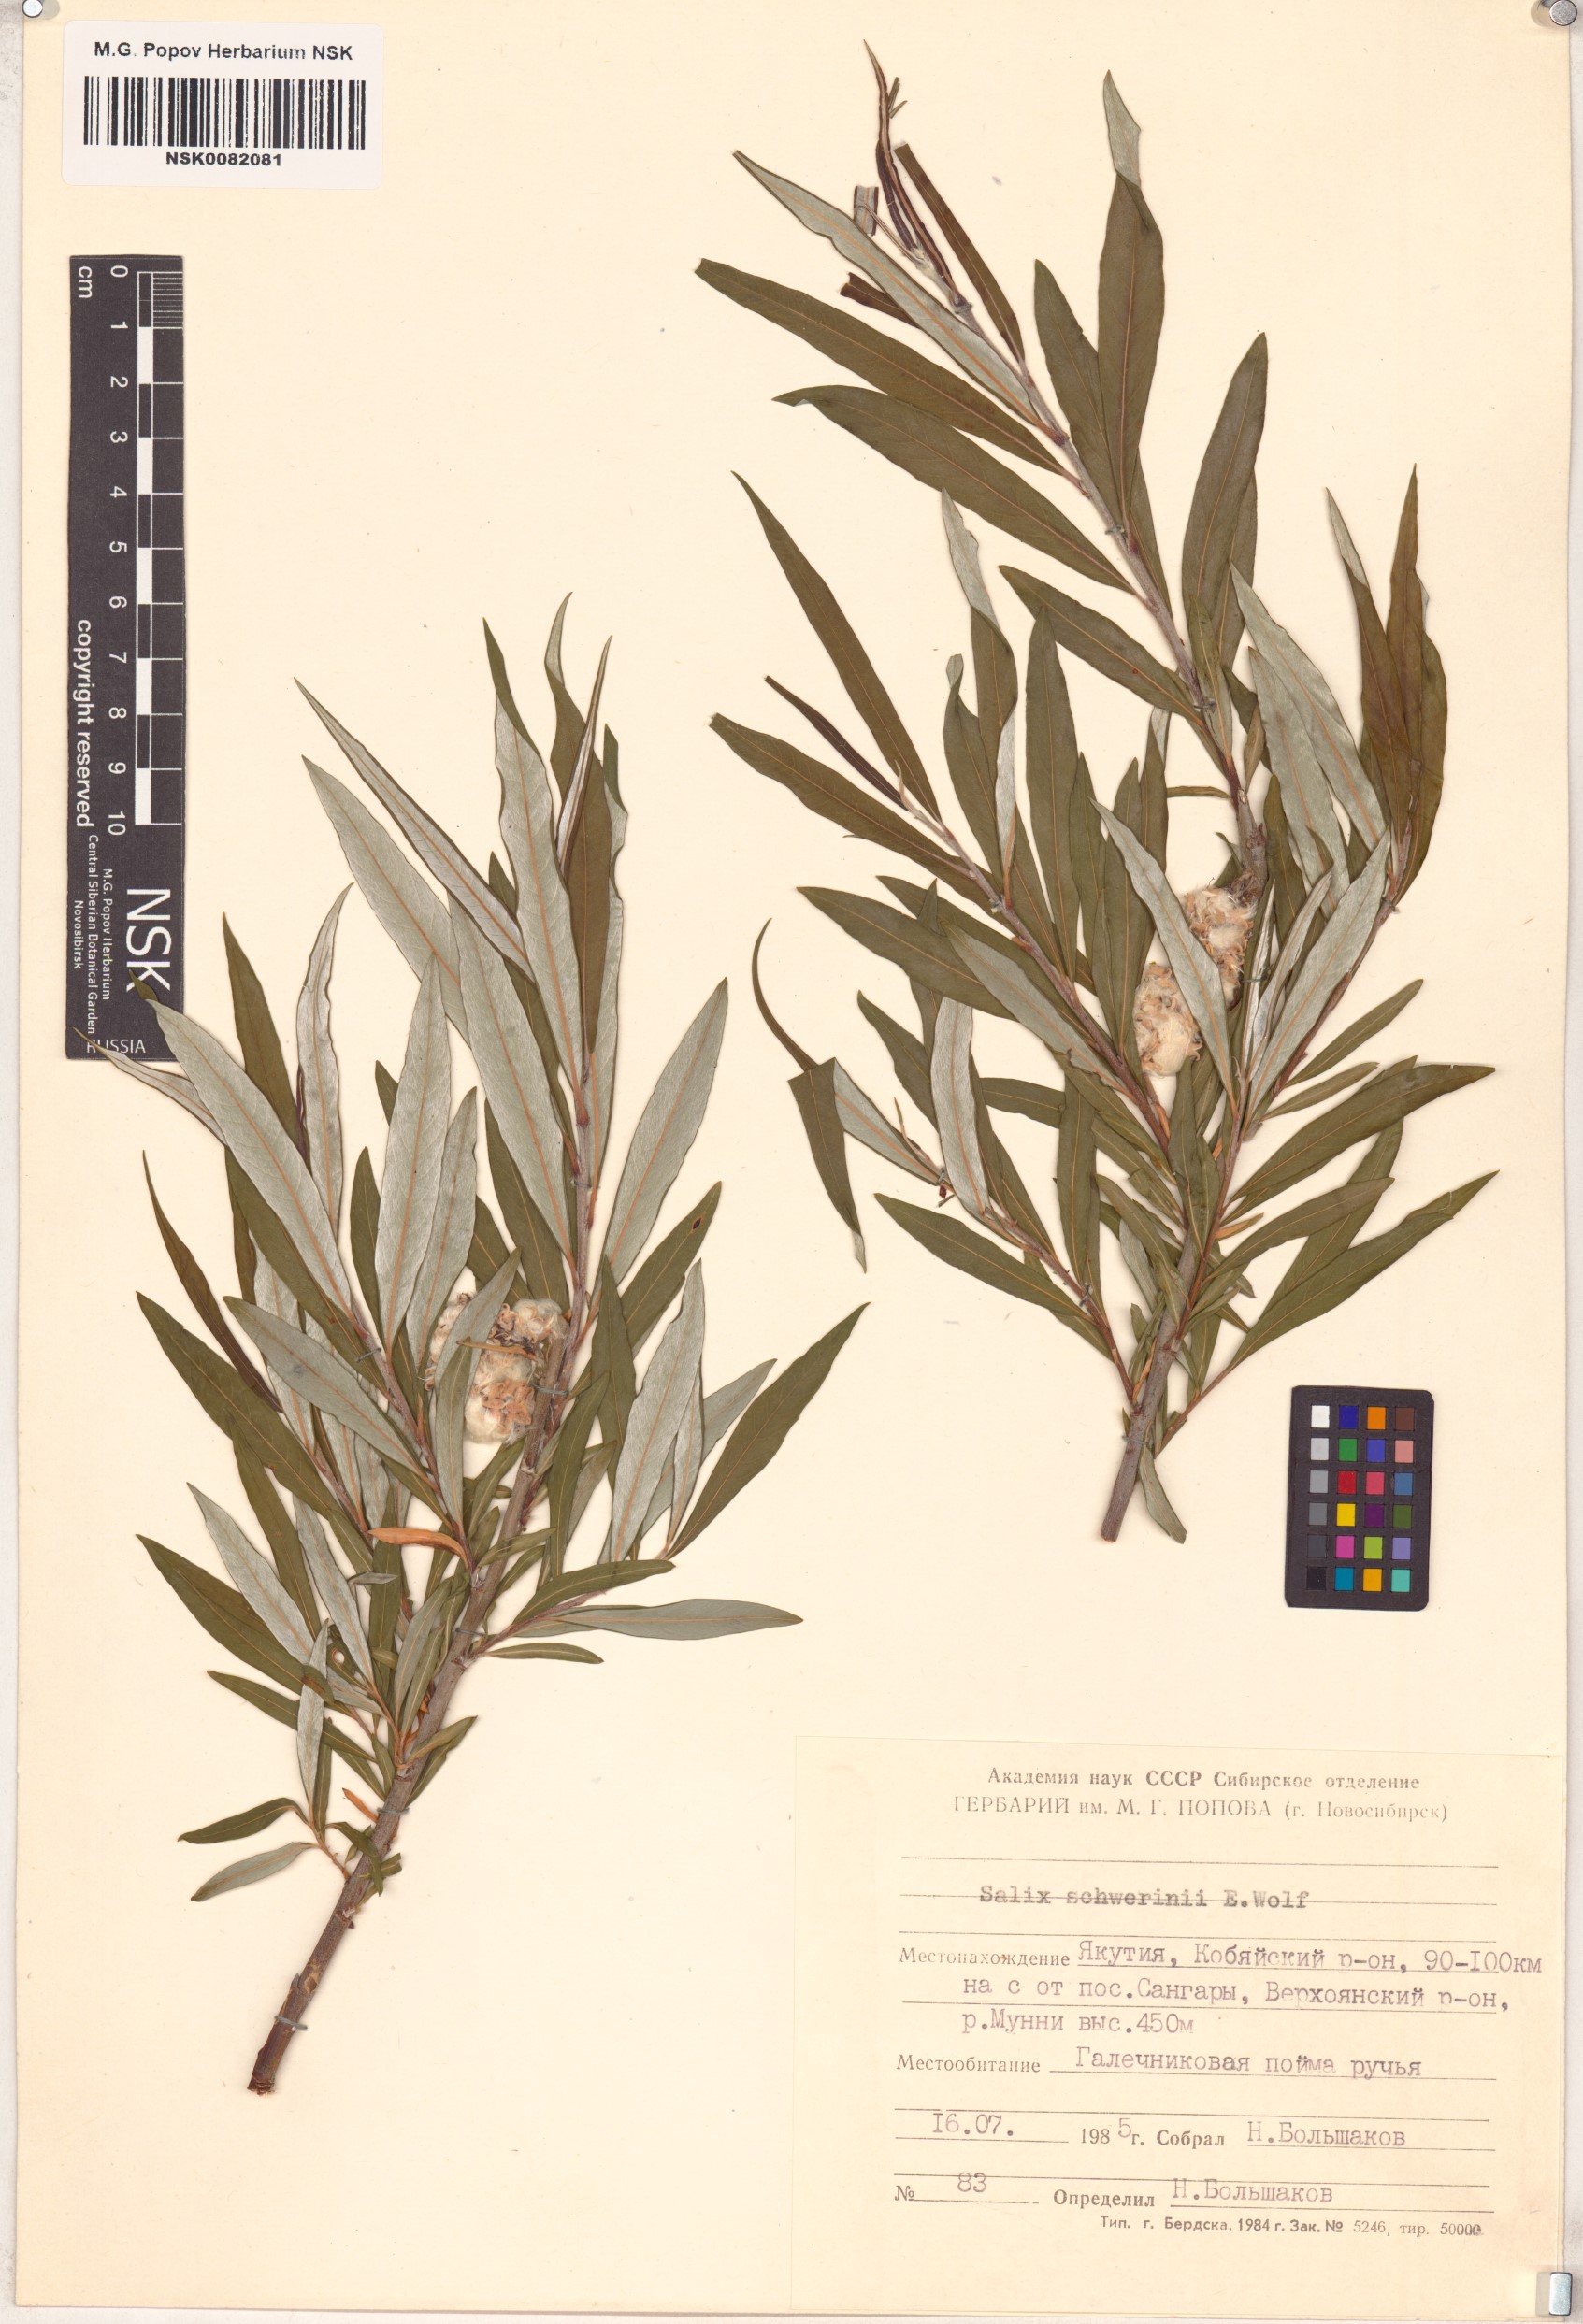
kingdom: Plantae
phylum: Tracheophyta
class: Magnoliopsida
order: Malpighiales
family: Salicaceae
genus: Salix
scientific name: Salix schwerinii
